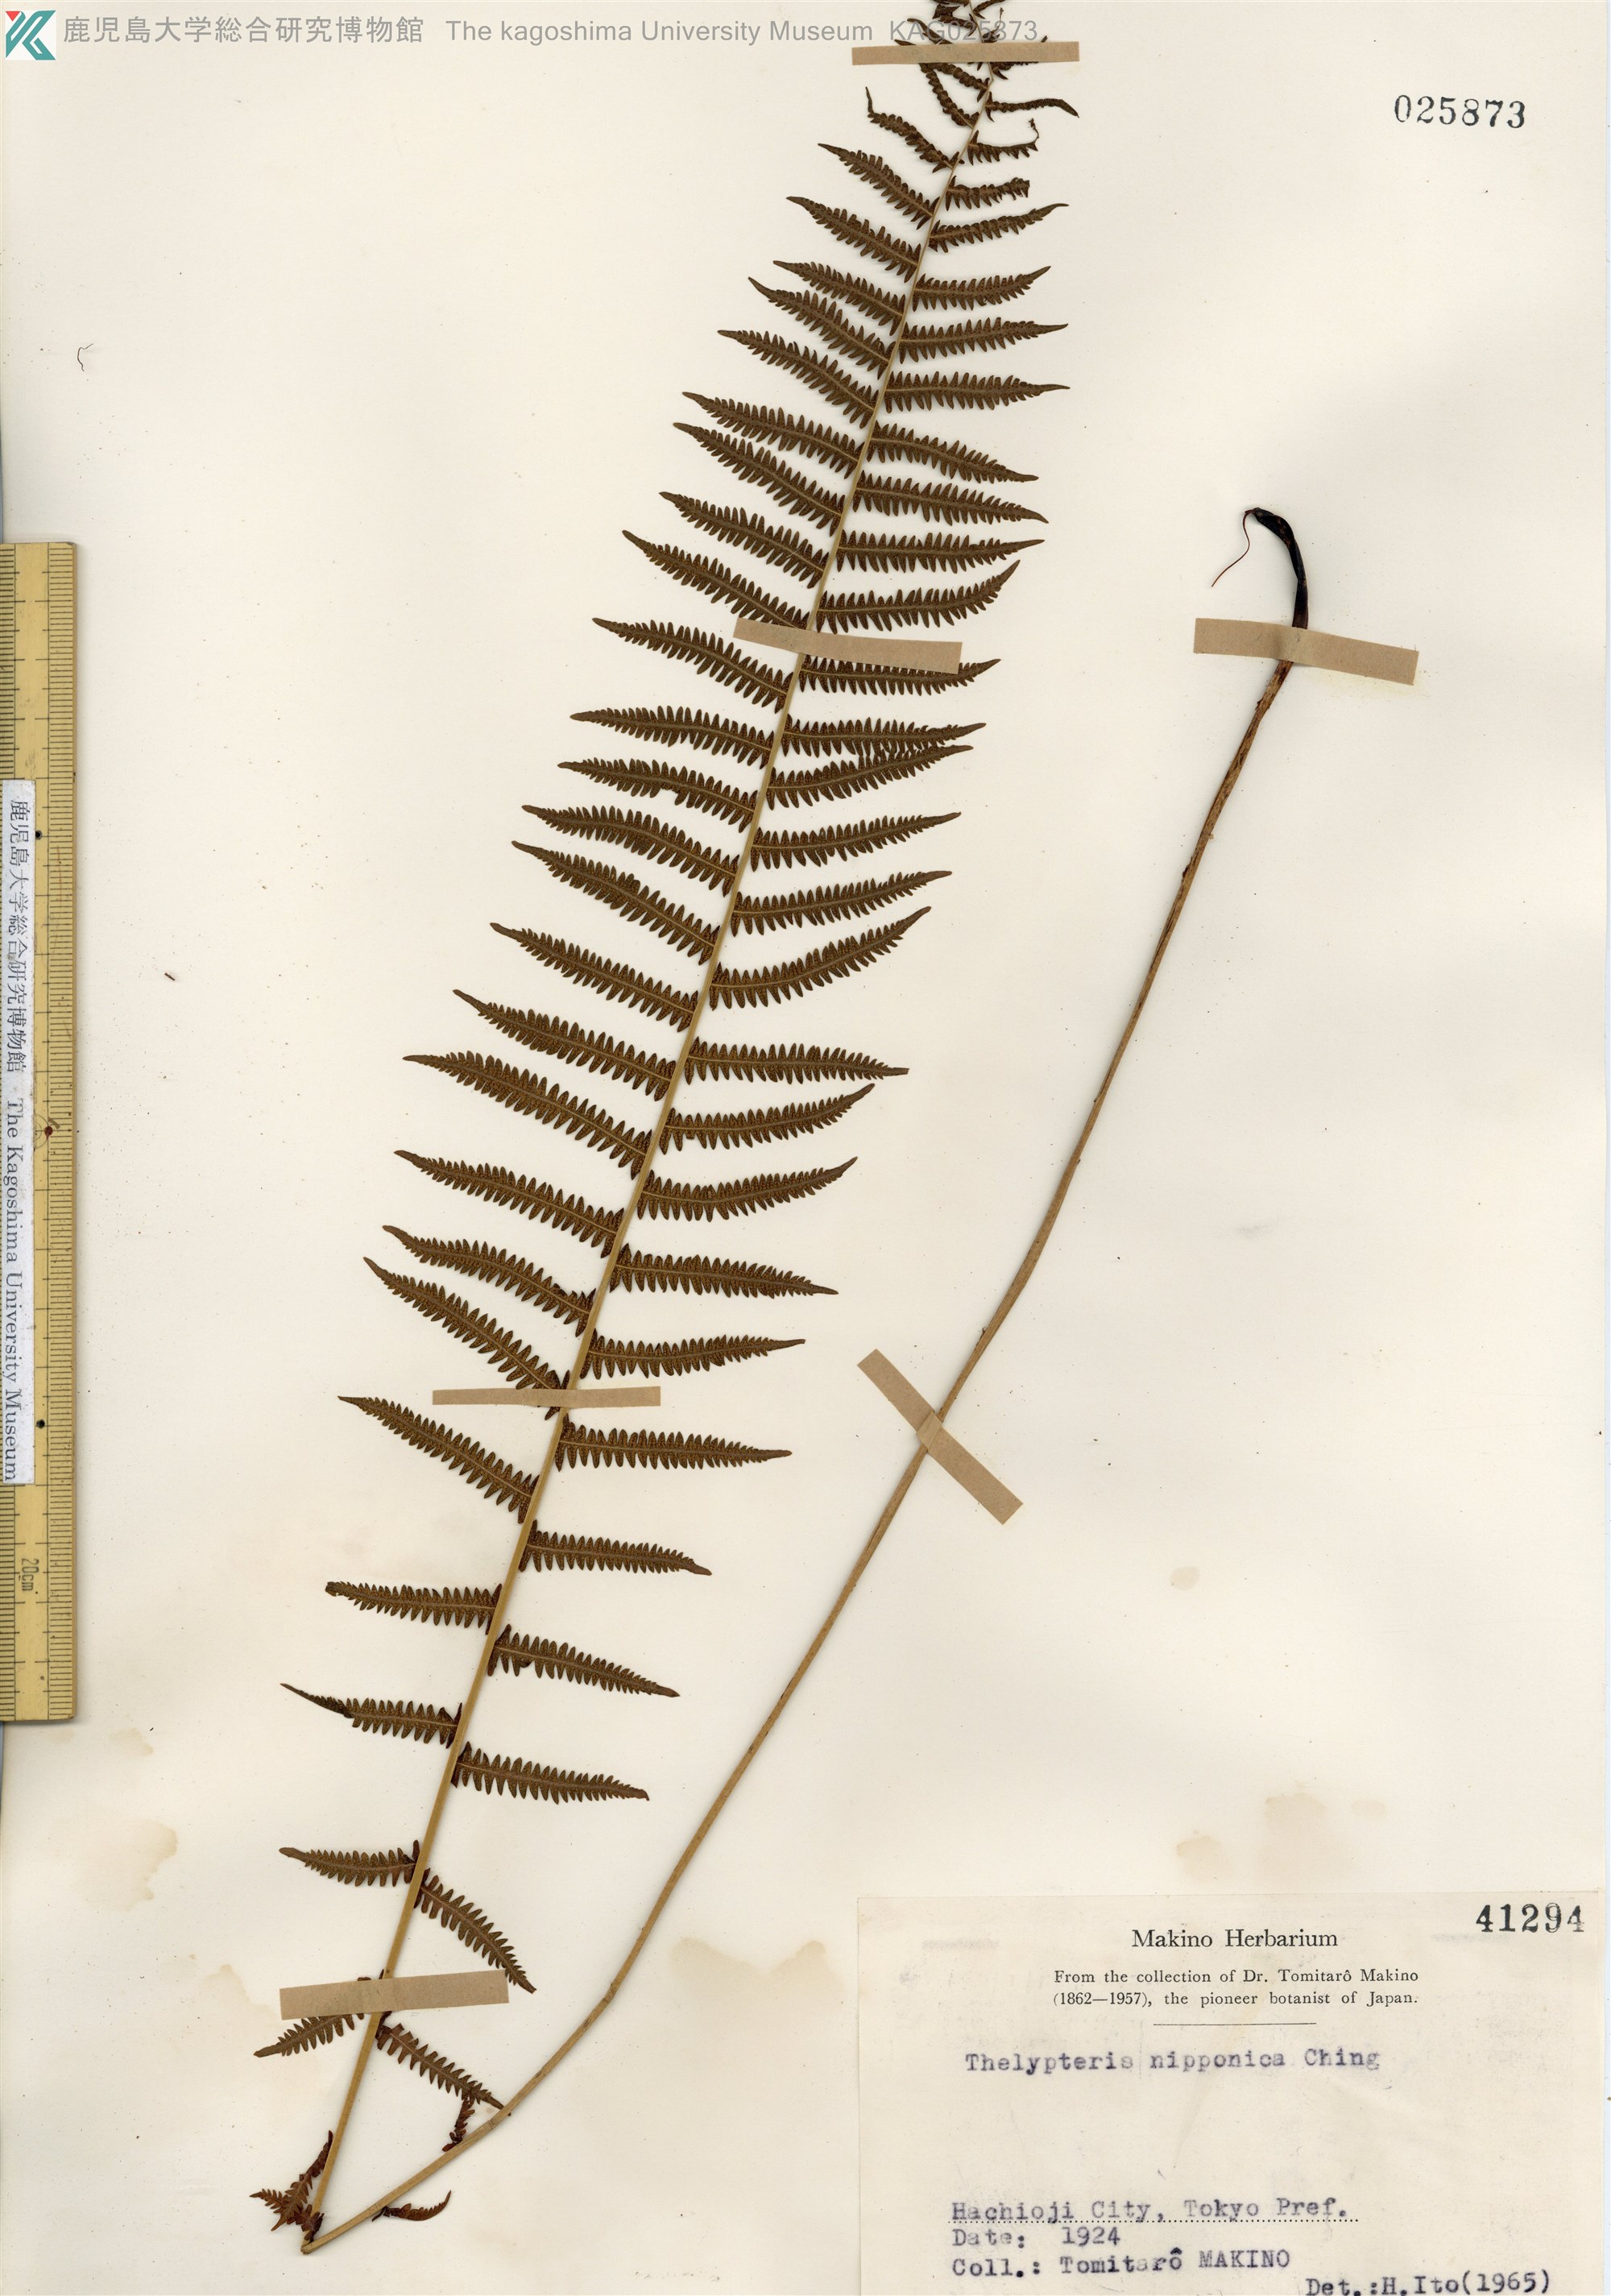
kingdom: Plantae
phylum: Tracheophyta
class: Polypodiopsida
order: Polypodiales
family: Thelypteridaceae
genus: Coryphopteris
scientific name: Coryphopteris nipponica
